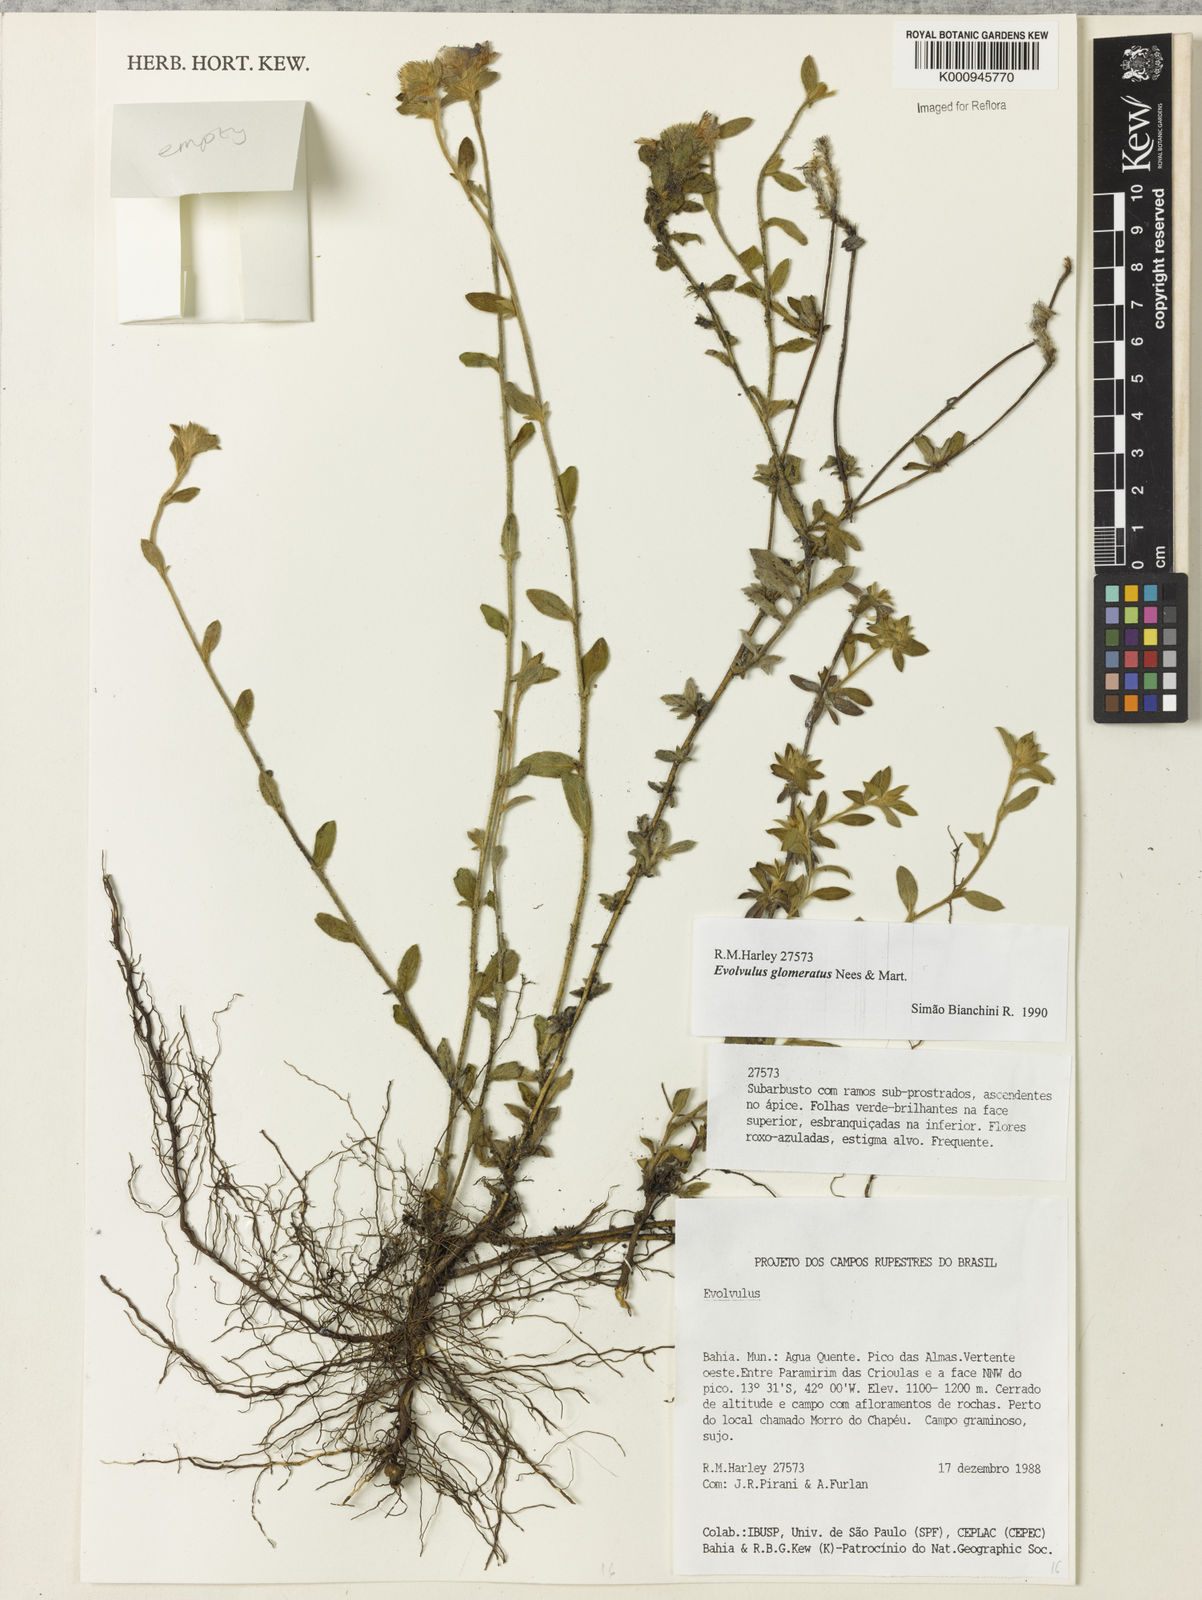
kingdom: Plantae
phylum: Tracheophyta
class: Magnoliopsida
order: Solanales
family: Convolvulaceae
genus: Evolvulus
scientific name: Evolvulus glomeratus
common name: Brazilian dwarf morning-glory
